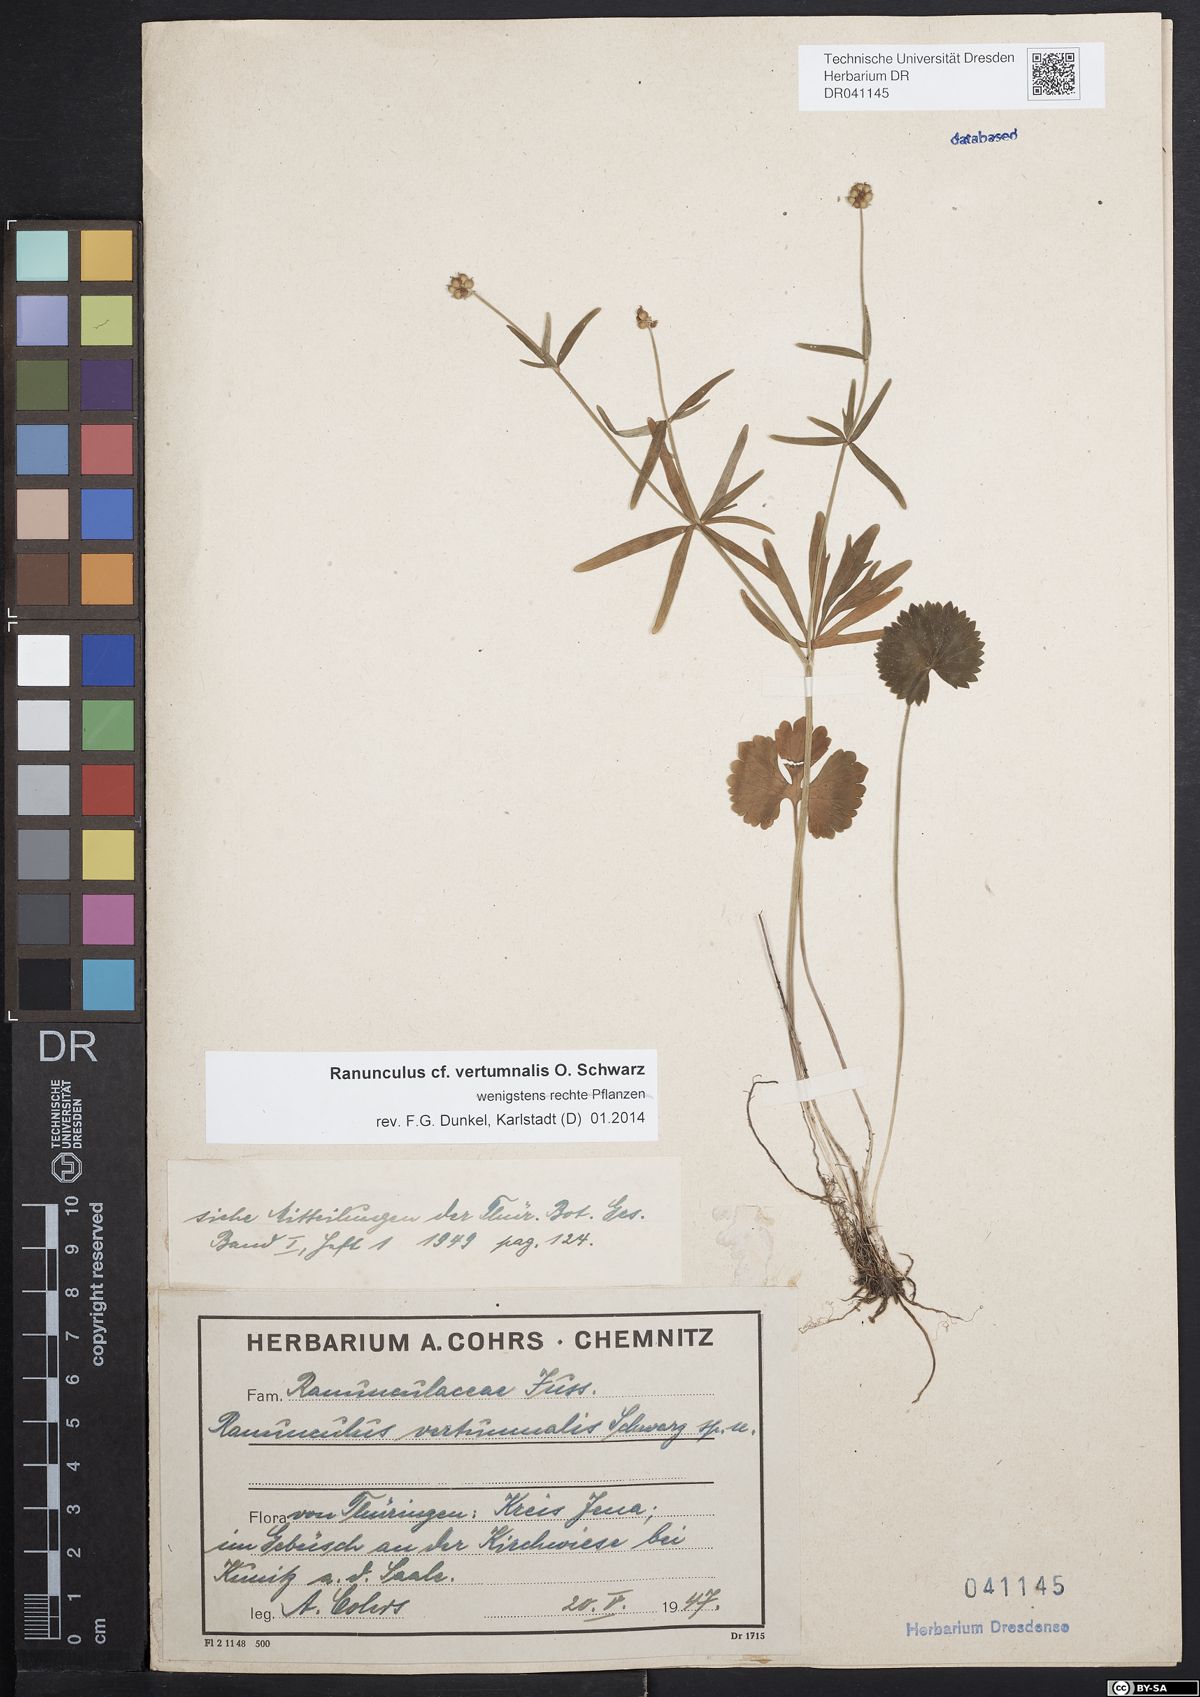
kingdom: Plantae
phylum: Tracheophyta
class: Magnoliopsida
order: Ranunculales
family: Ranunculaceae
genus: Ranunculus
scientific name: Ranunculus vertumnalis
